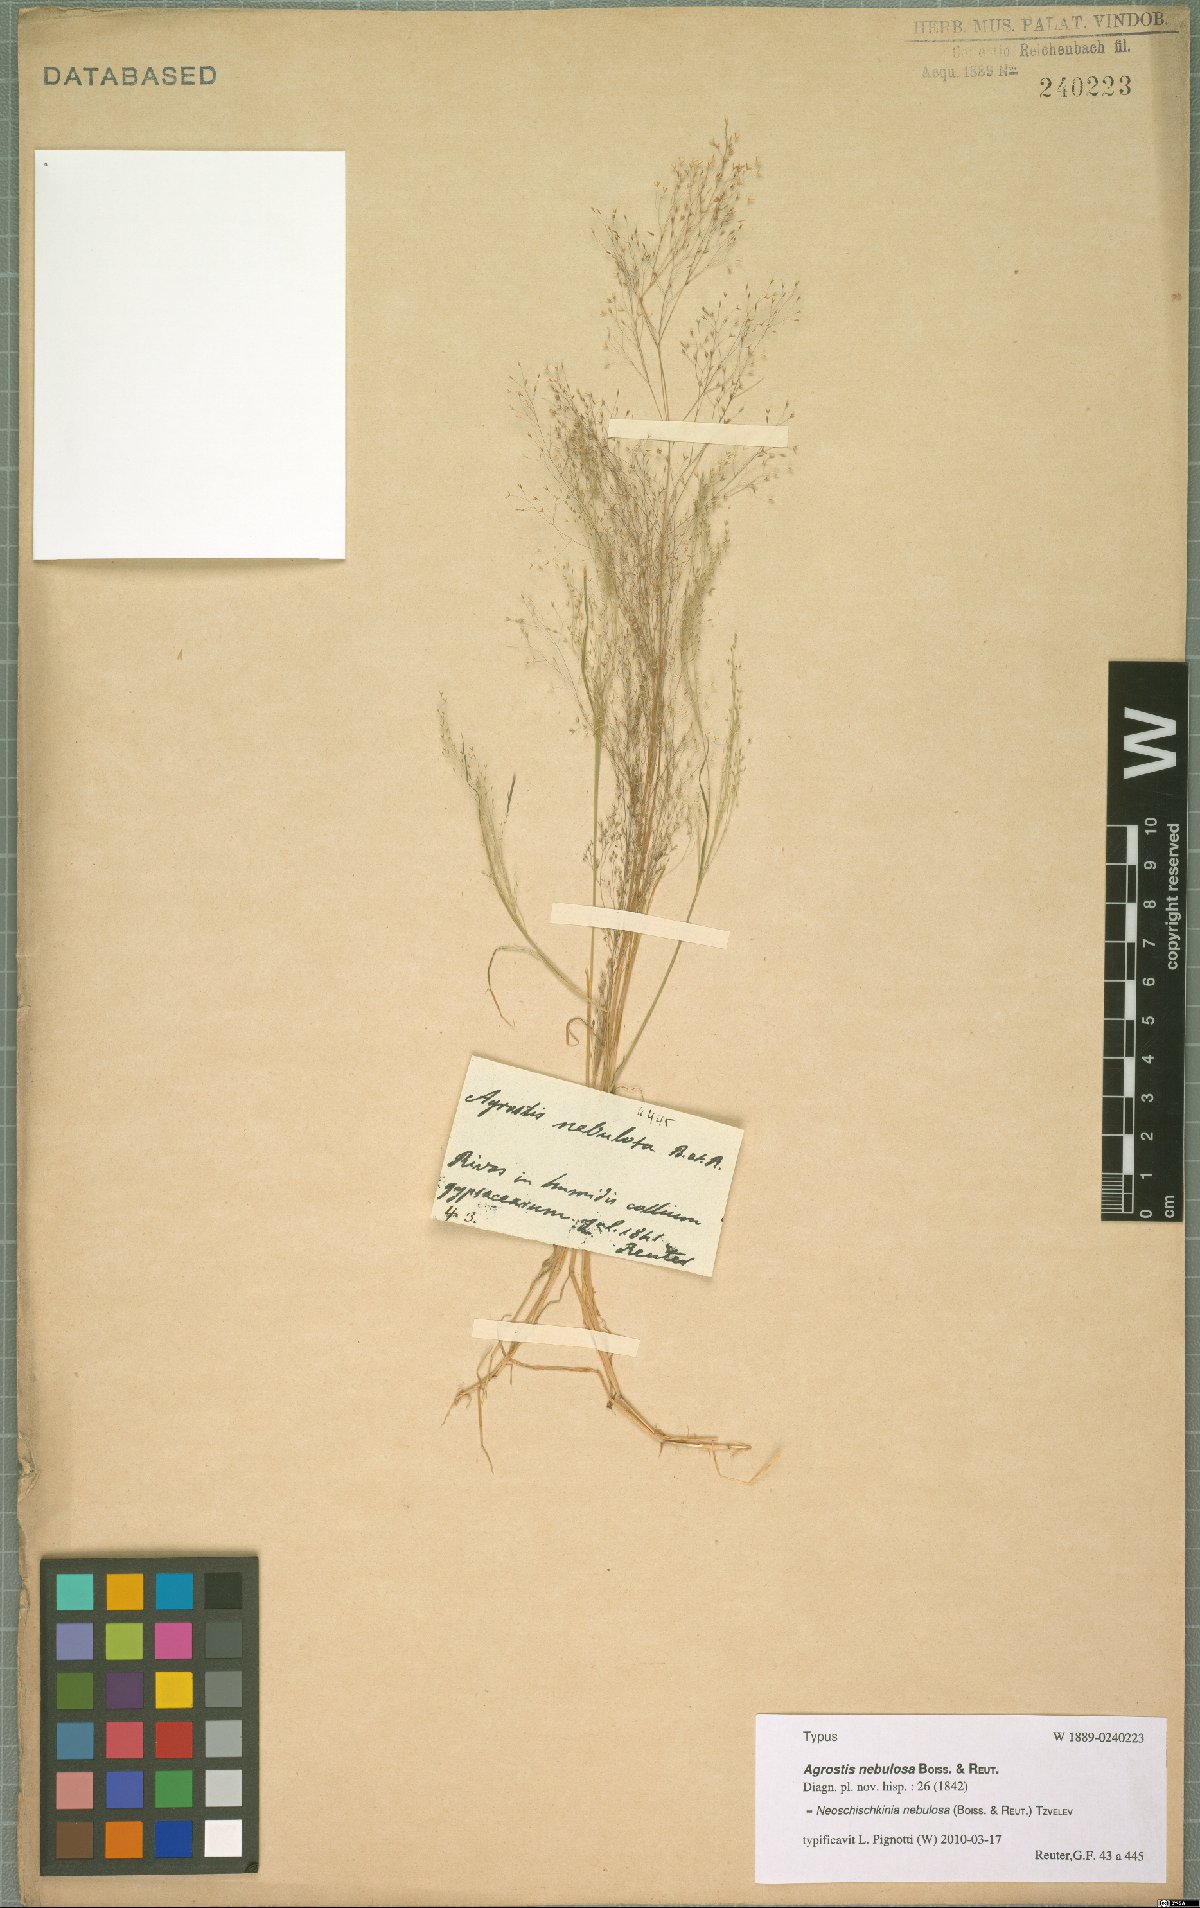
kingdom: Plantae
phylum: Tracheophyta
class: Liliopsida
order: Poales
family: Poaceae
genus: Agrostis
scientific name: Agrostis nebulosa
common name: Cloud grass
